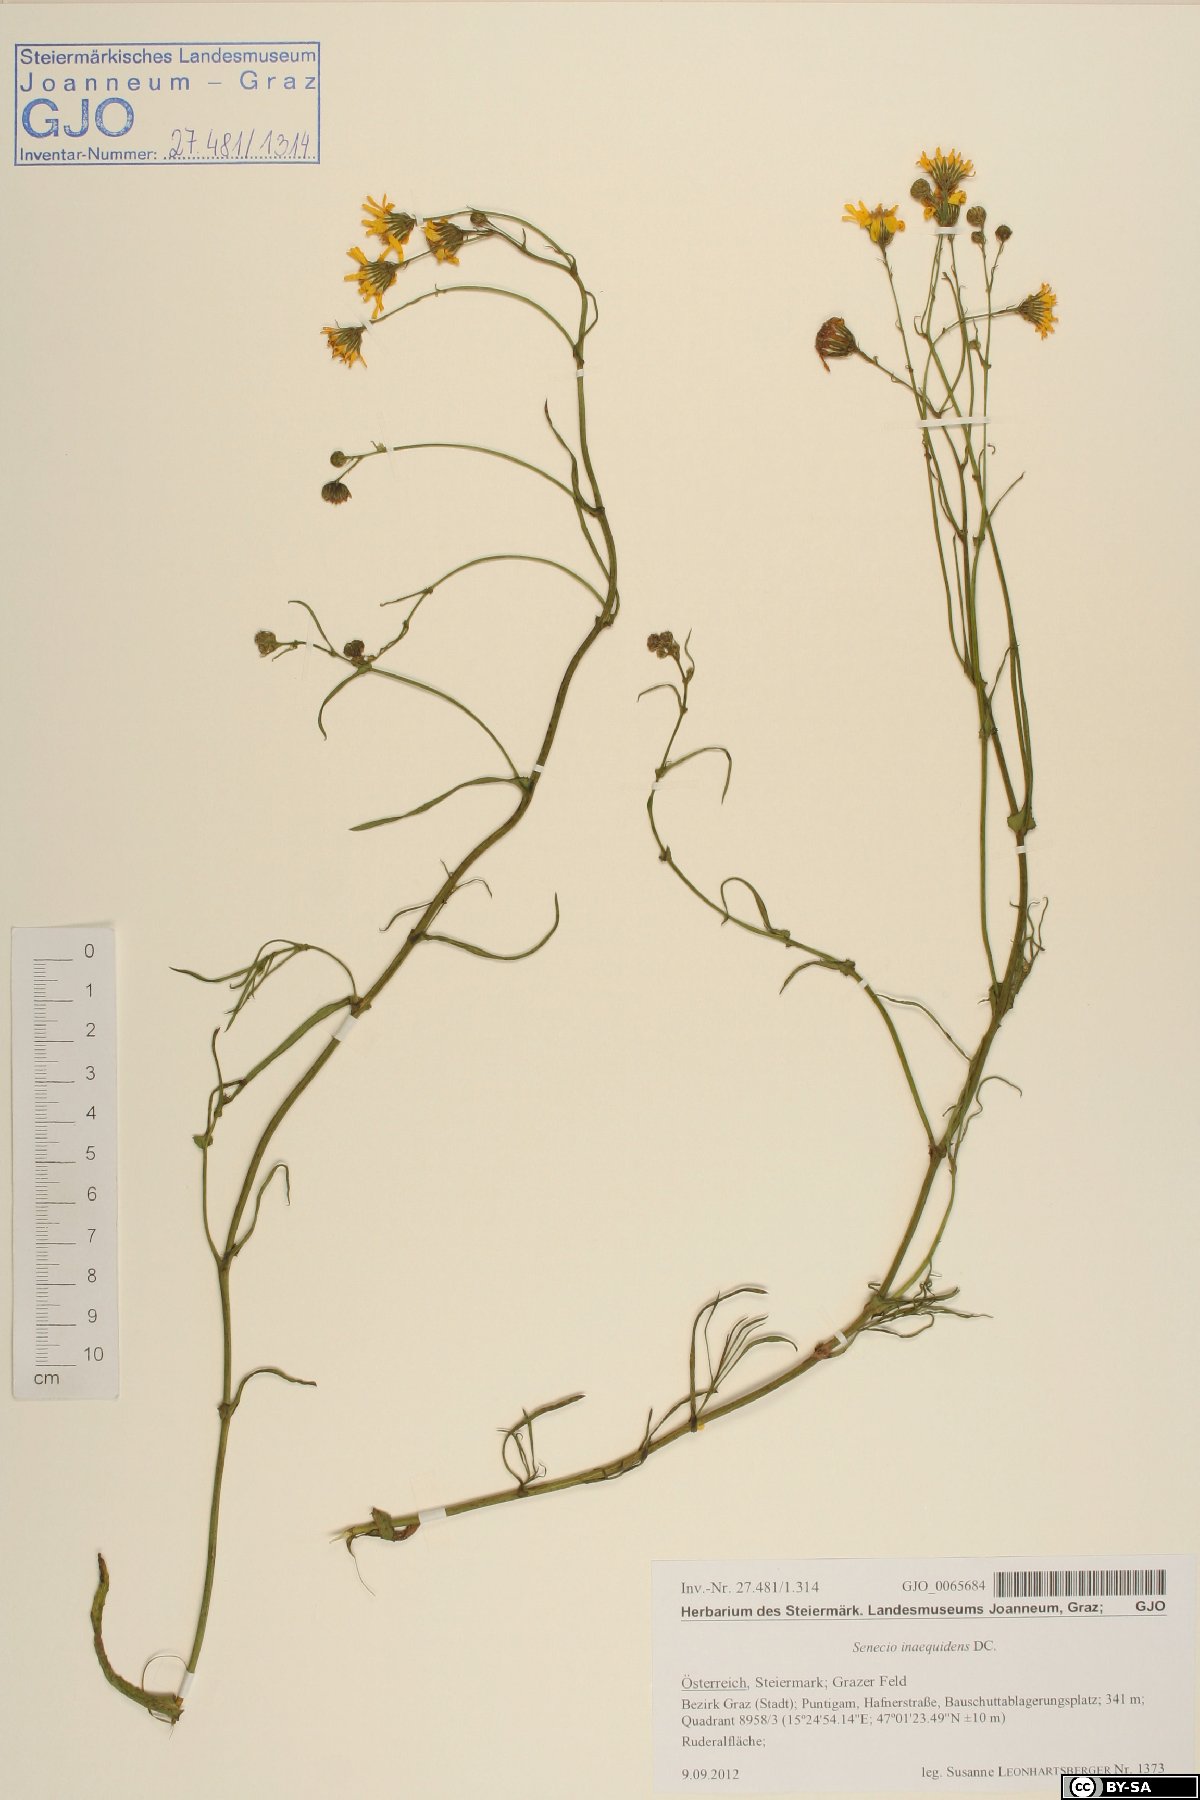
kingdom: Plantae
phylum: Tracheophyta
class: Magnoliopsida
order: Asterales
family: Asteraceae
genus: Senecio
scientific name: Senecio inaequidens
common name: Narrow-leaved ragwort
